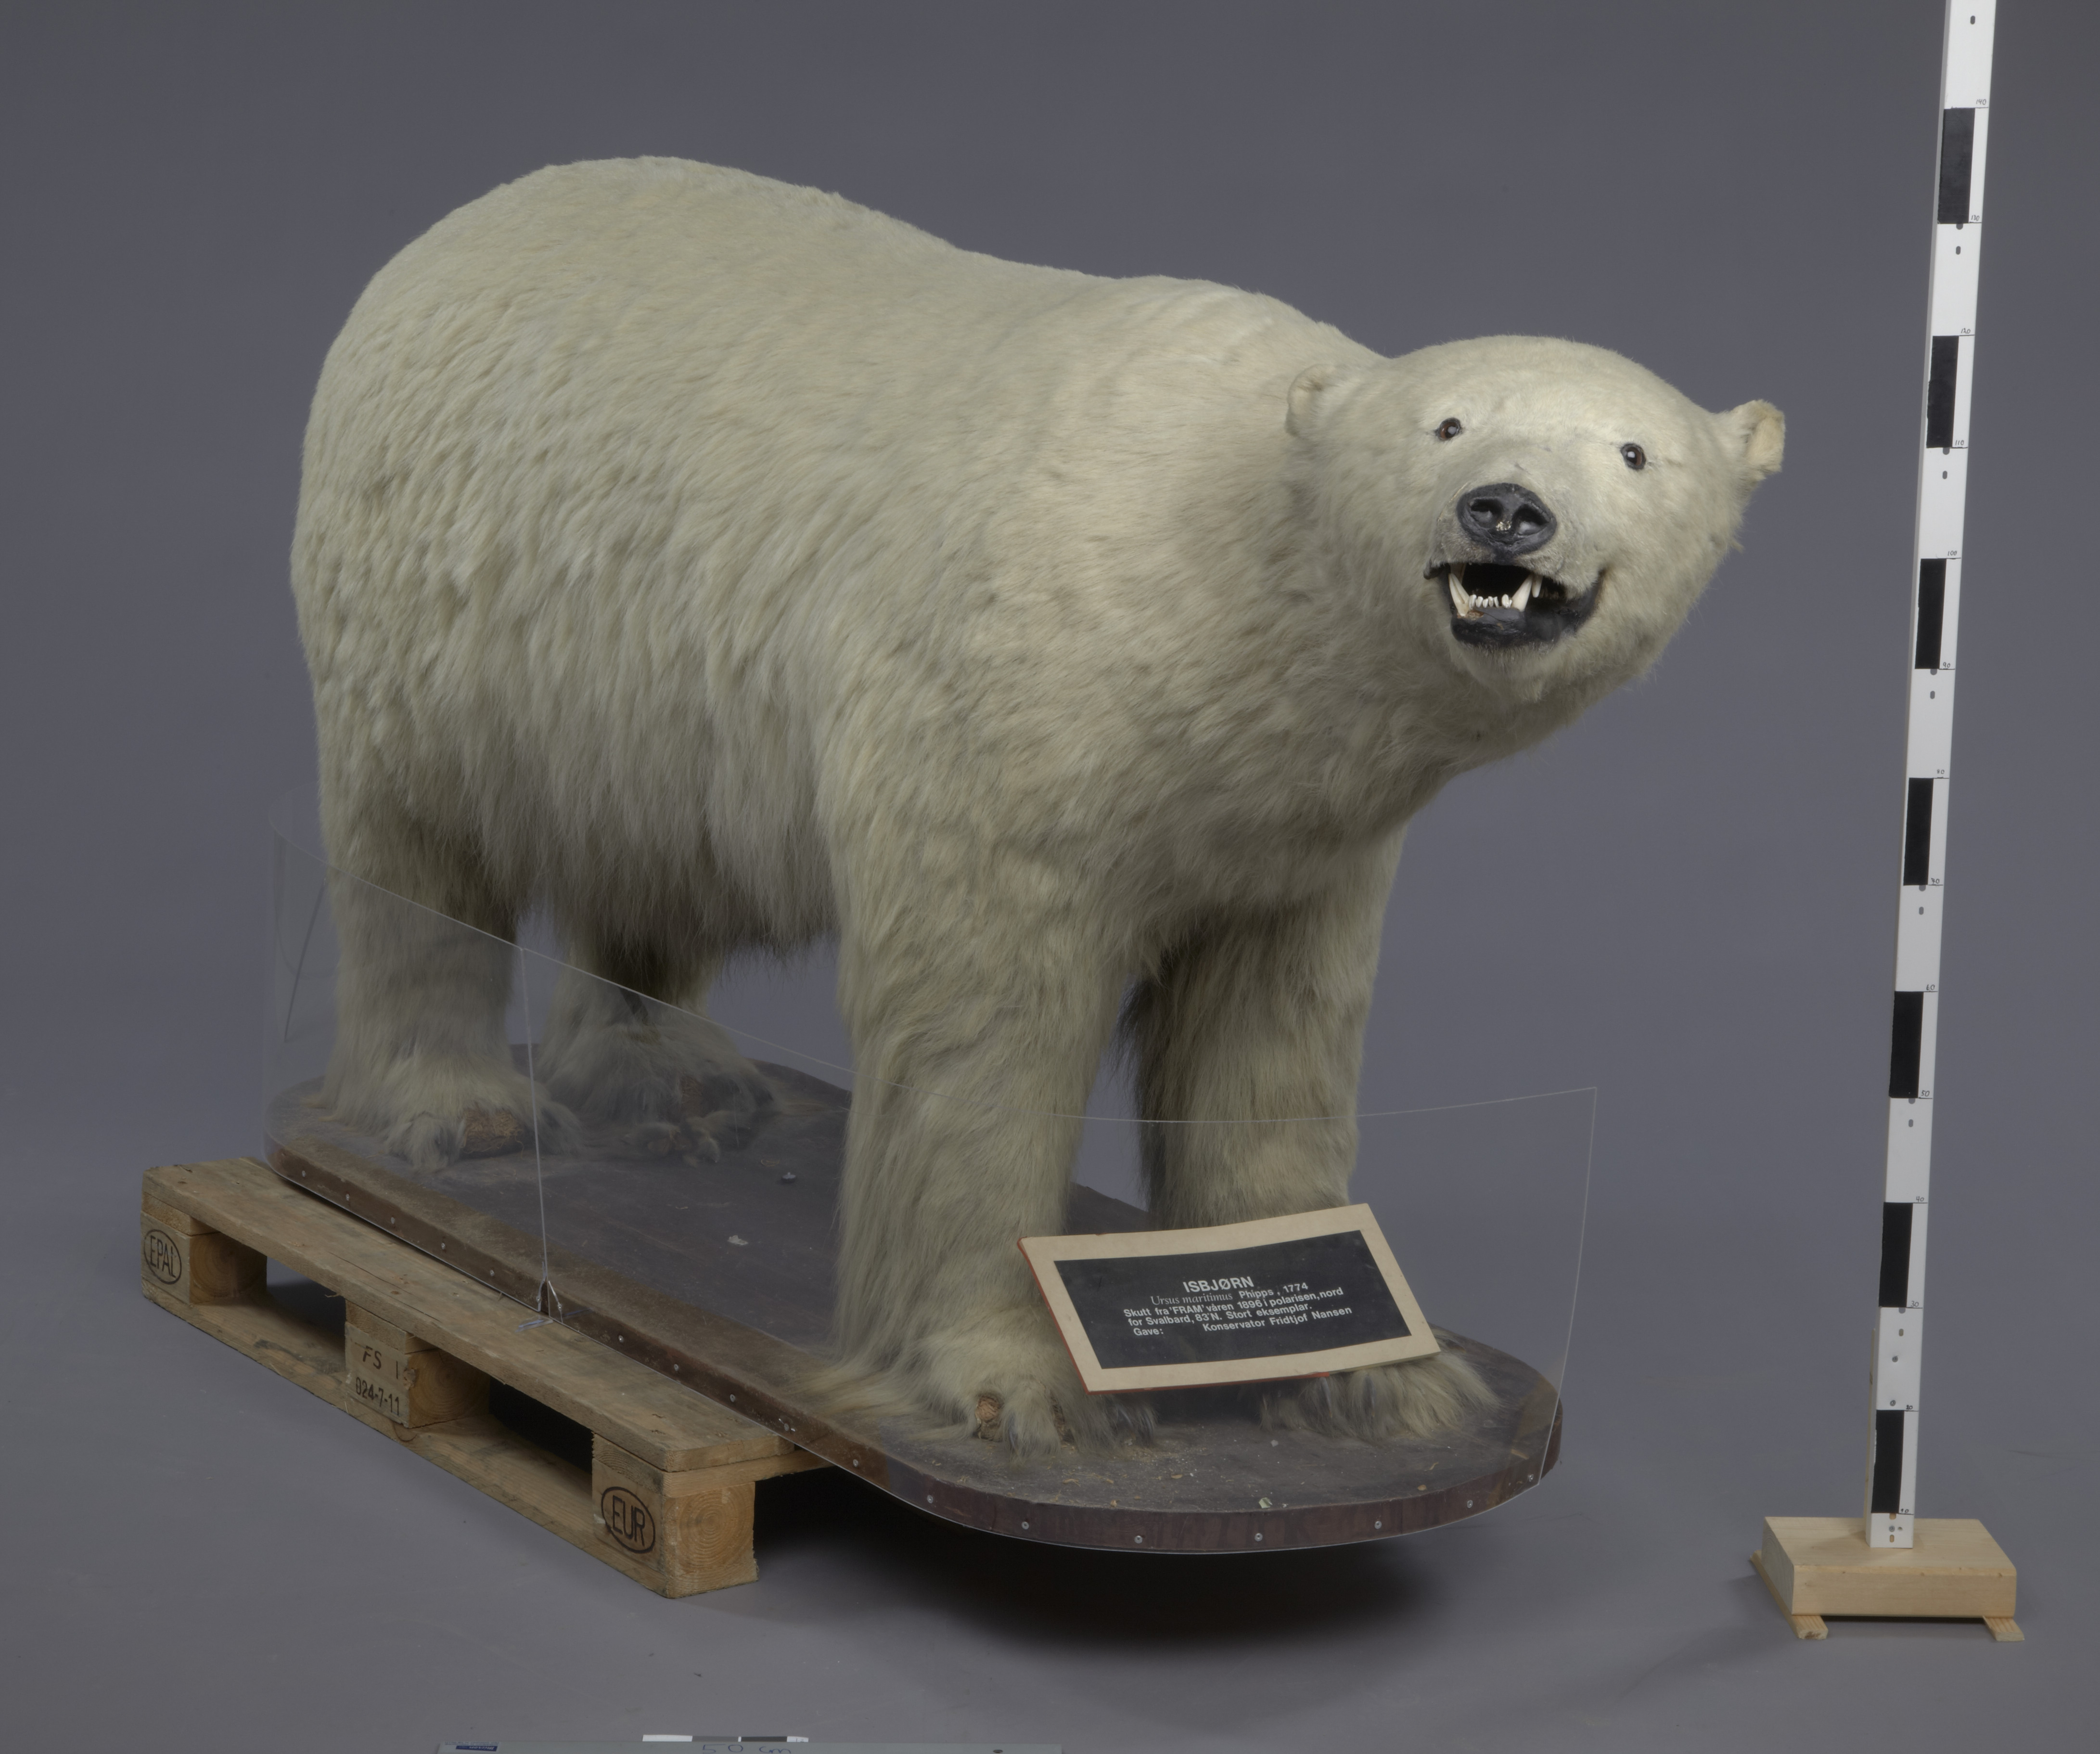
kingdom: Animalia
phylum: Chordata
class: Mammalia
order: Carnivora
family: Ursidae
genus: Ursus
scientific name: Ursus maritimus
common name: Polar bear
